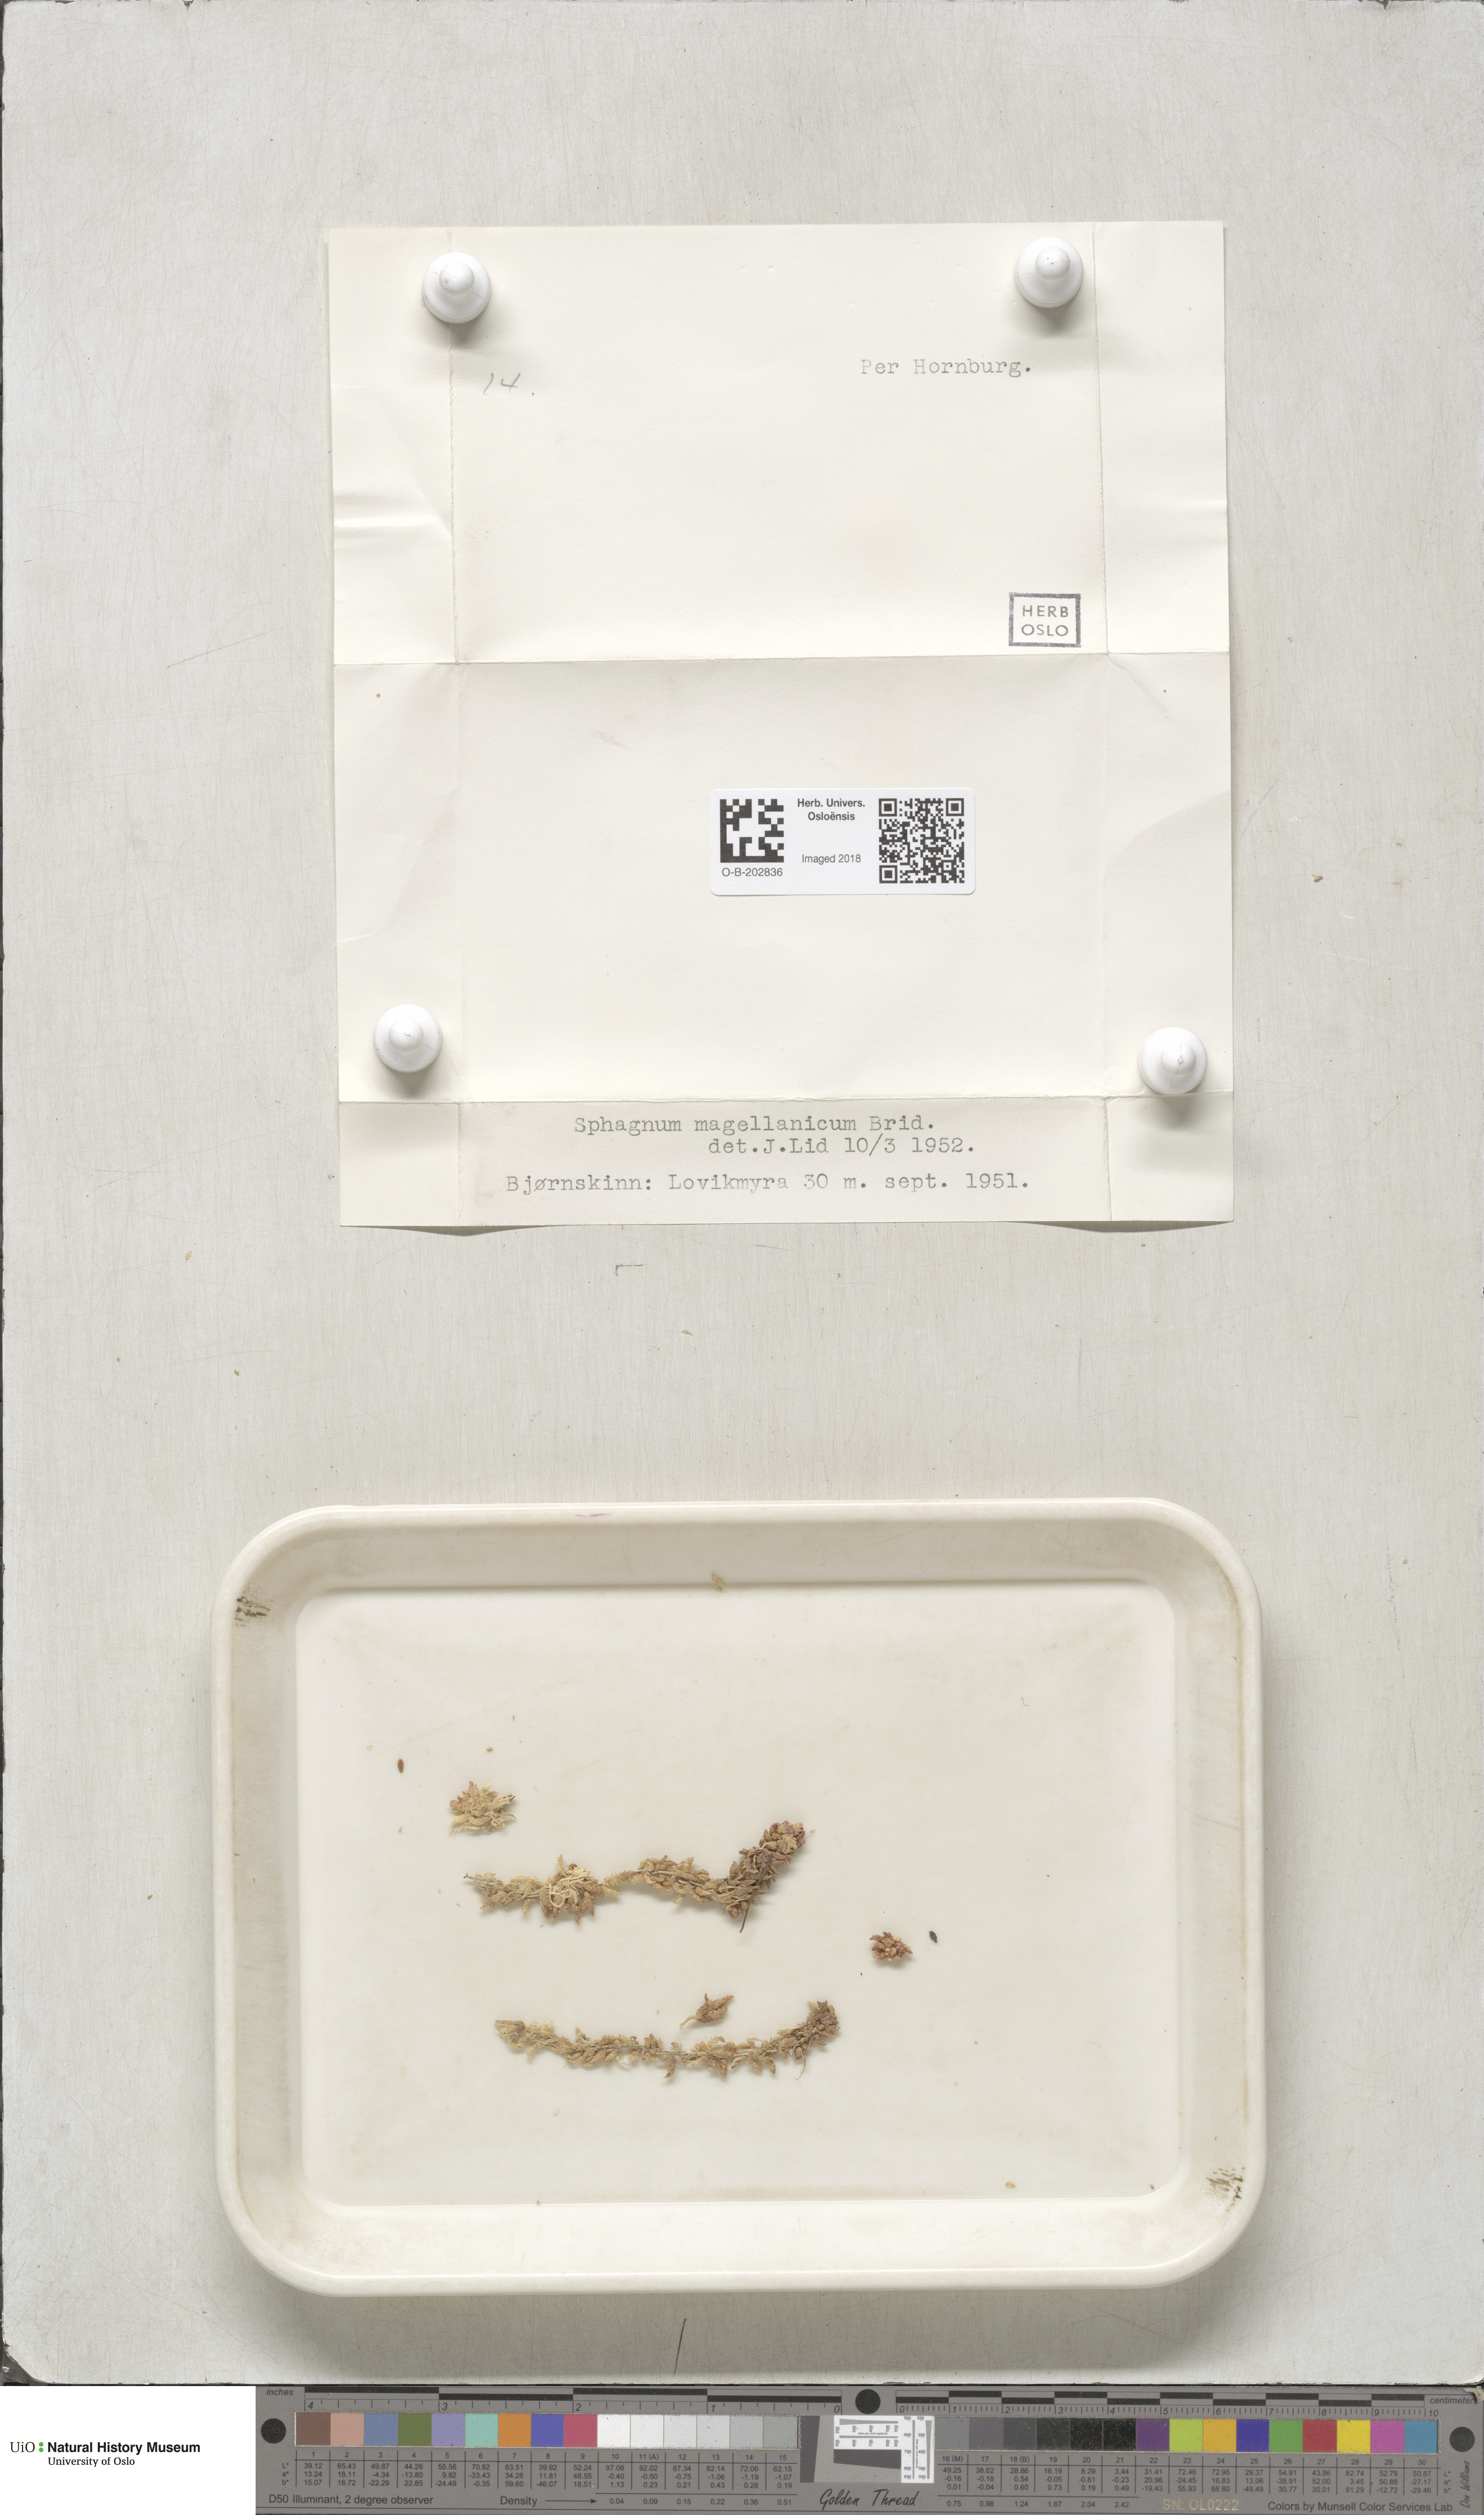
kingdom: Plantae
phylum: Bryophyta
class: Sphagnopsida
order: Sphagnales
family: Sphagnaceae
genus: Sphagnum
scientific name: Sphagnum magellanicum
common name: Magellan's peat moss
